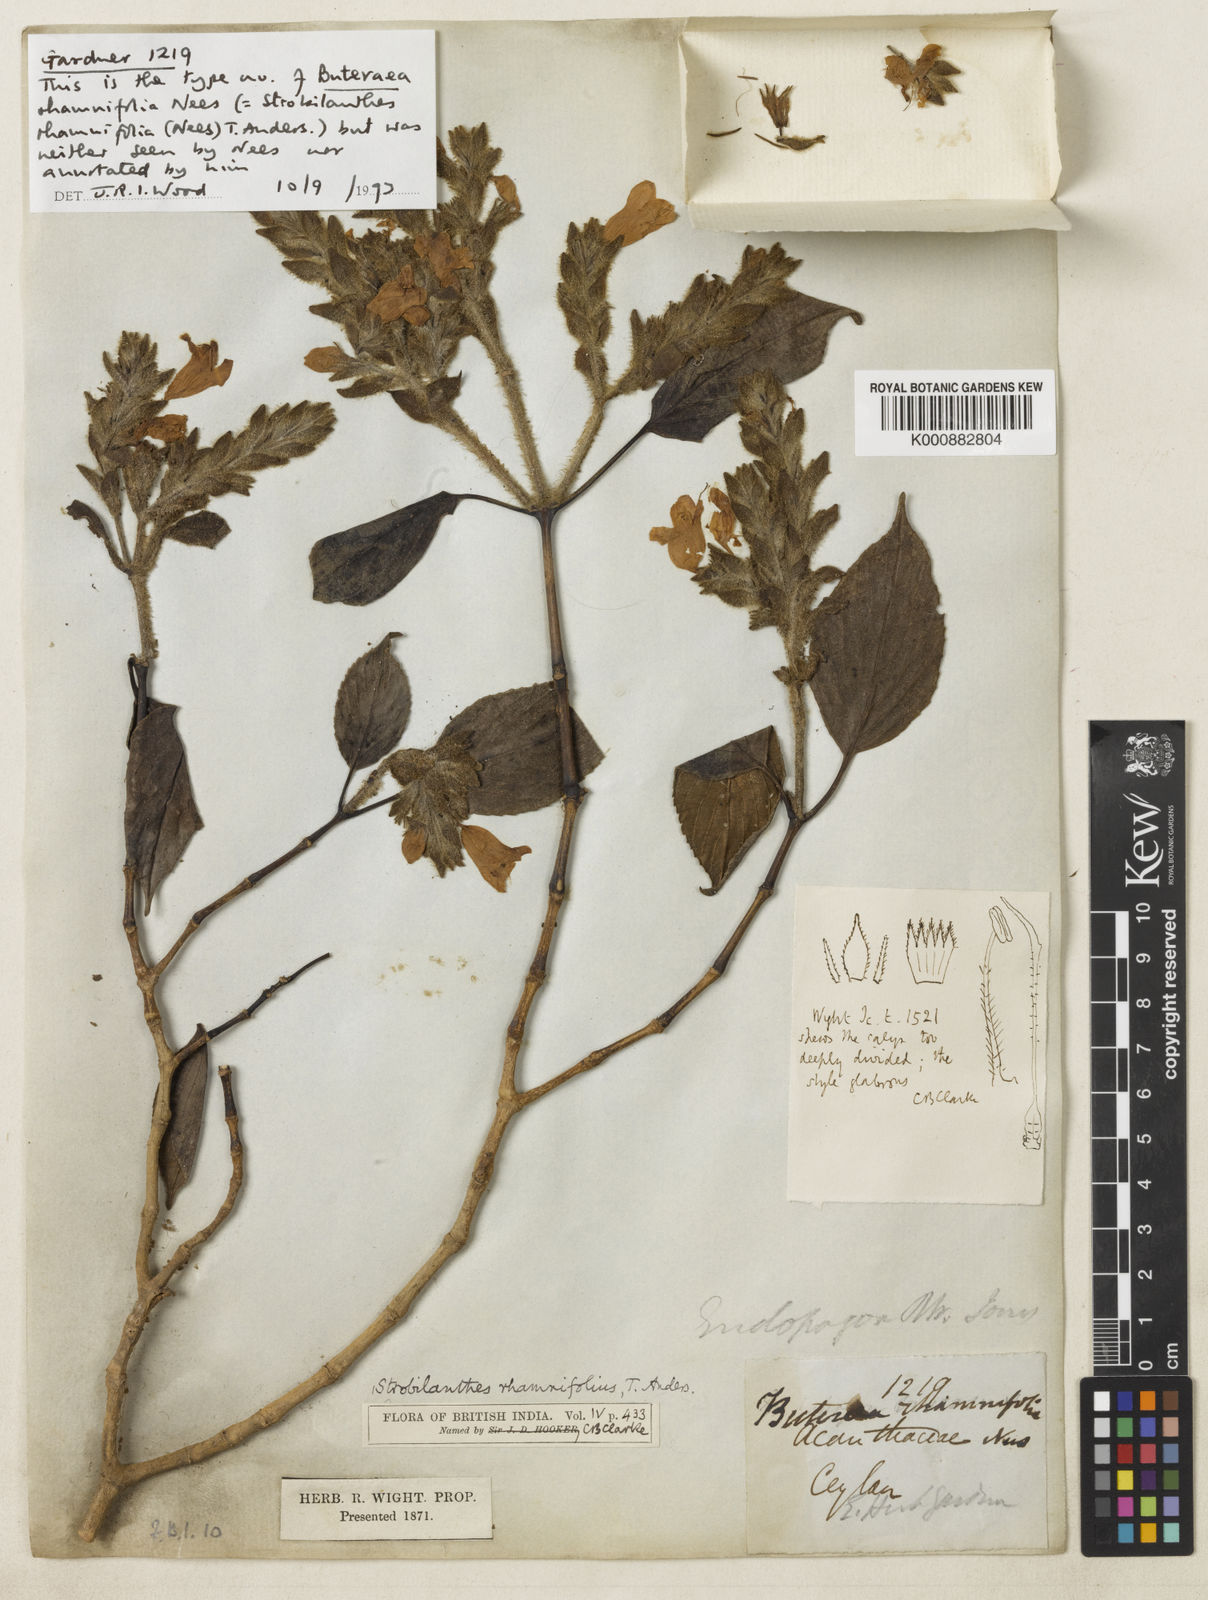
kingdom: Plantae
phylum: Tracheophyta
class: Magnoliopsida
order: Lamiales
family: Acanthaceae
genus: Strobilanthes
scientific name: Strobilanthes rhamnifolia
